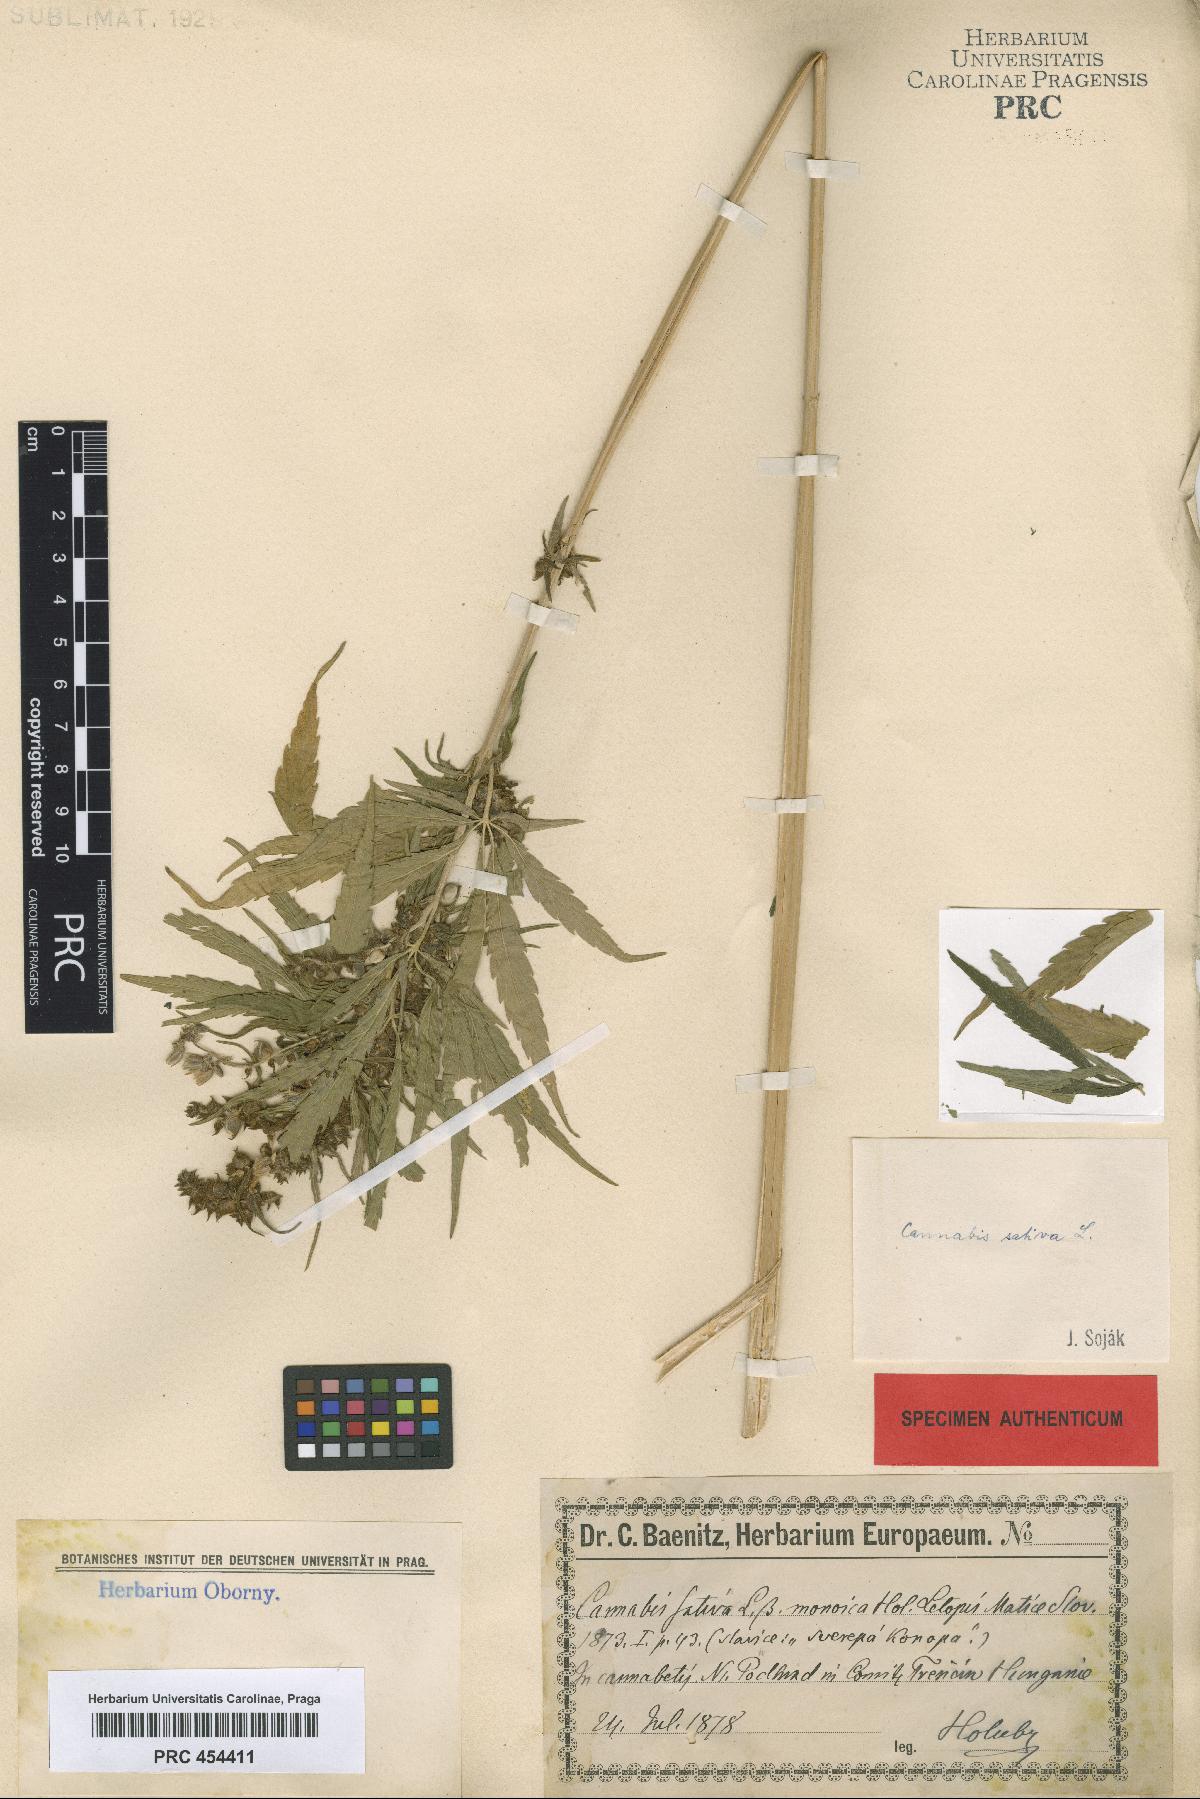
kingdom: Plantae
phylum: Tracheophyta
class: Magnoliopsida
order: Rosales
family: Cannabaceae
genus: Cannabis
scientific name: Cannabis sativa
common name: Hemp
